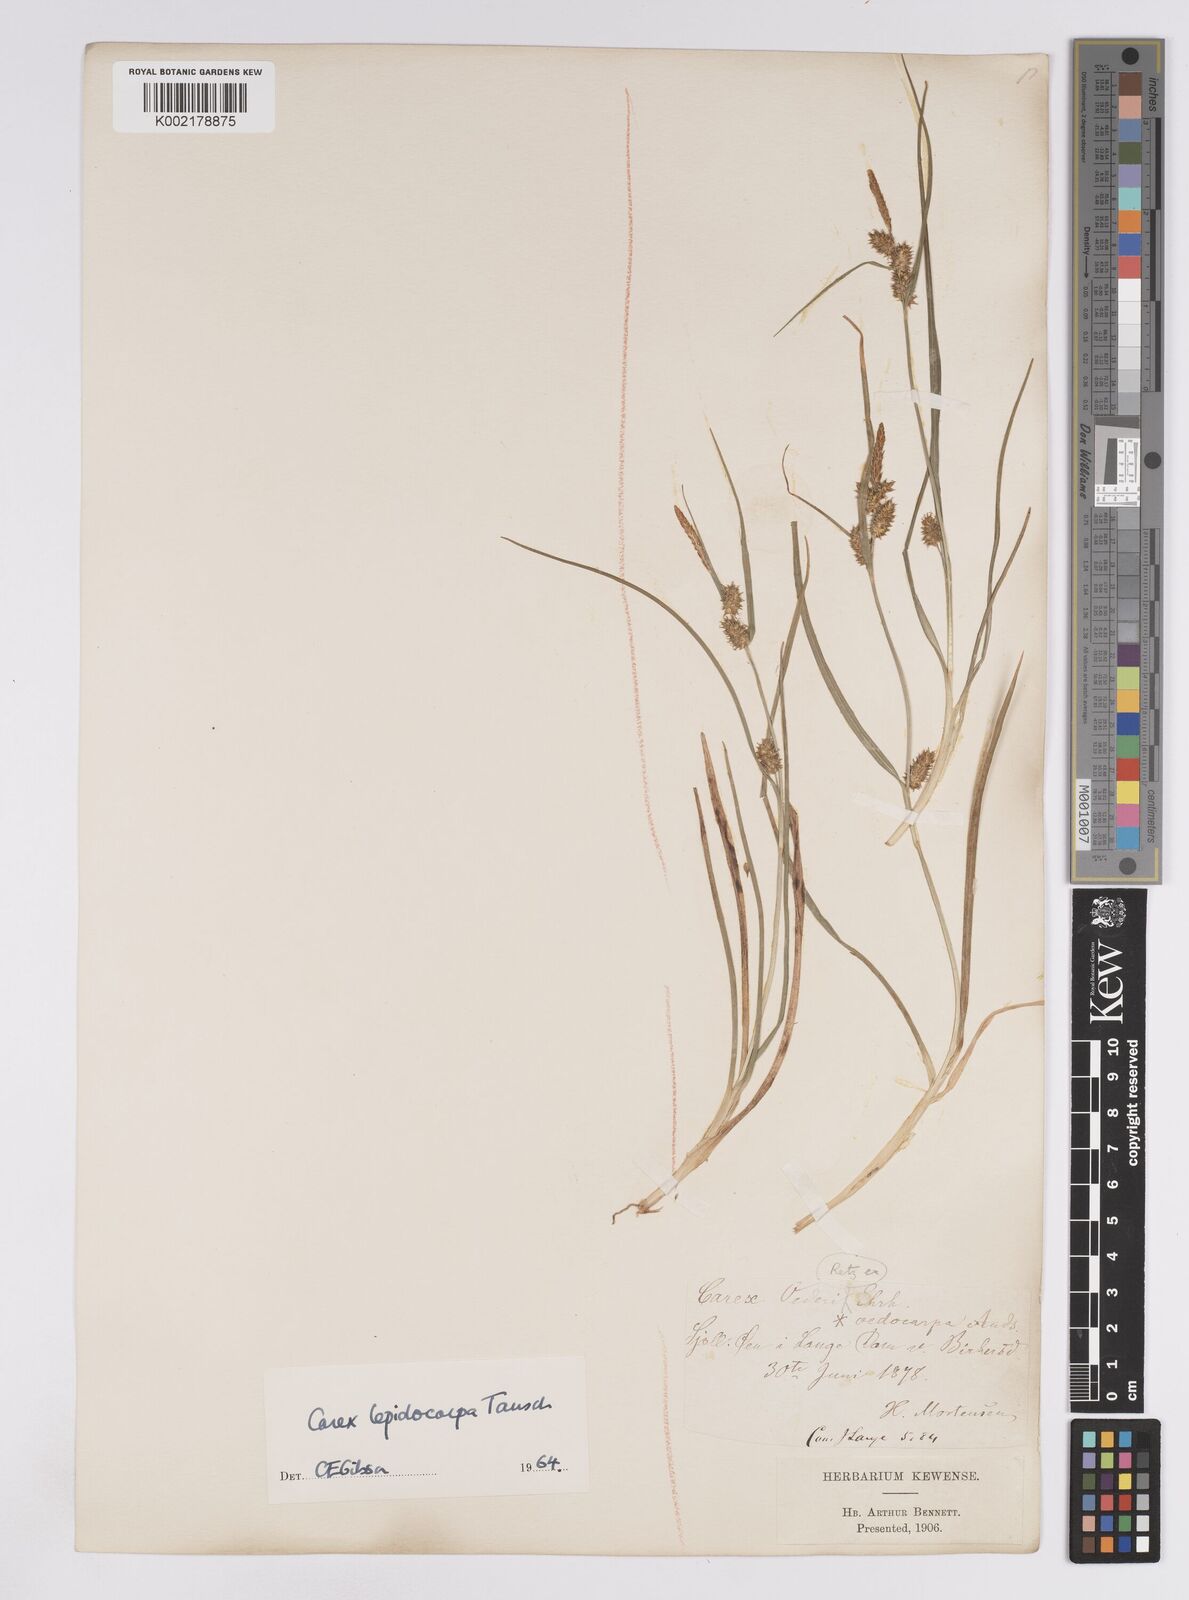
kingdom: Plantae
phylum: Tracheophyta
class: Liliopsida
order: Poales
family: Cyperaceae
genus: Carex
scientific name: Carex lepidocarpa
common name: Long-stalked yellow-sedge
